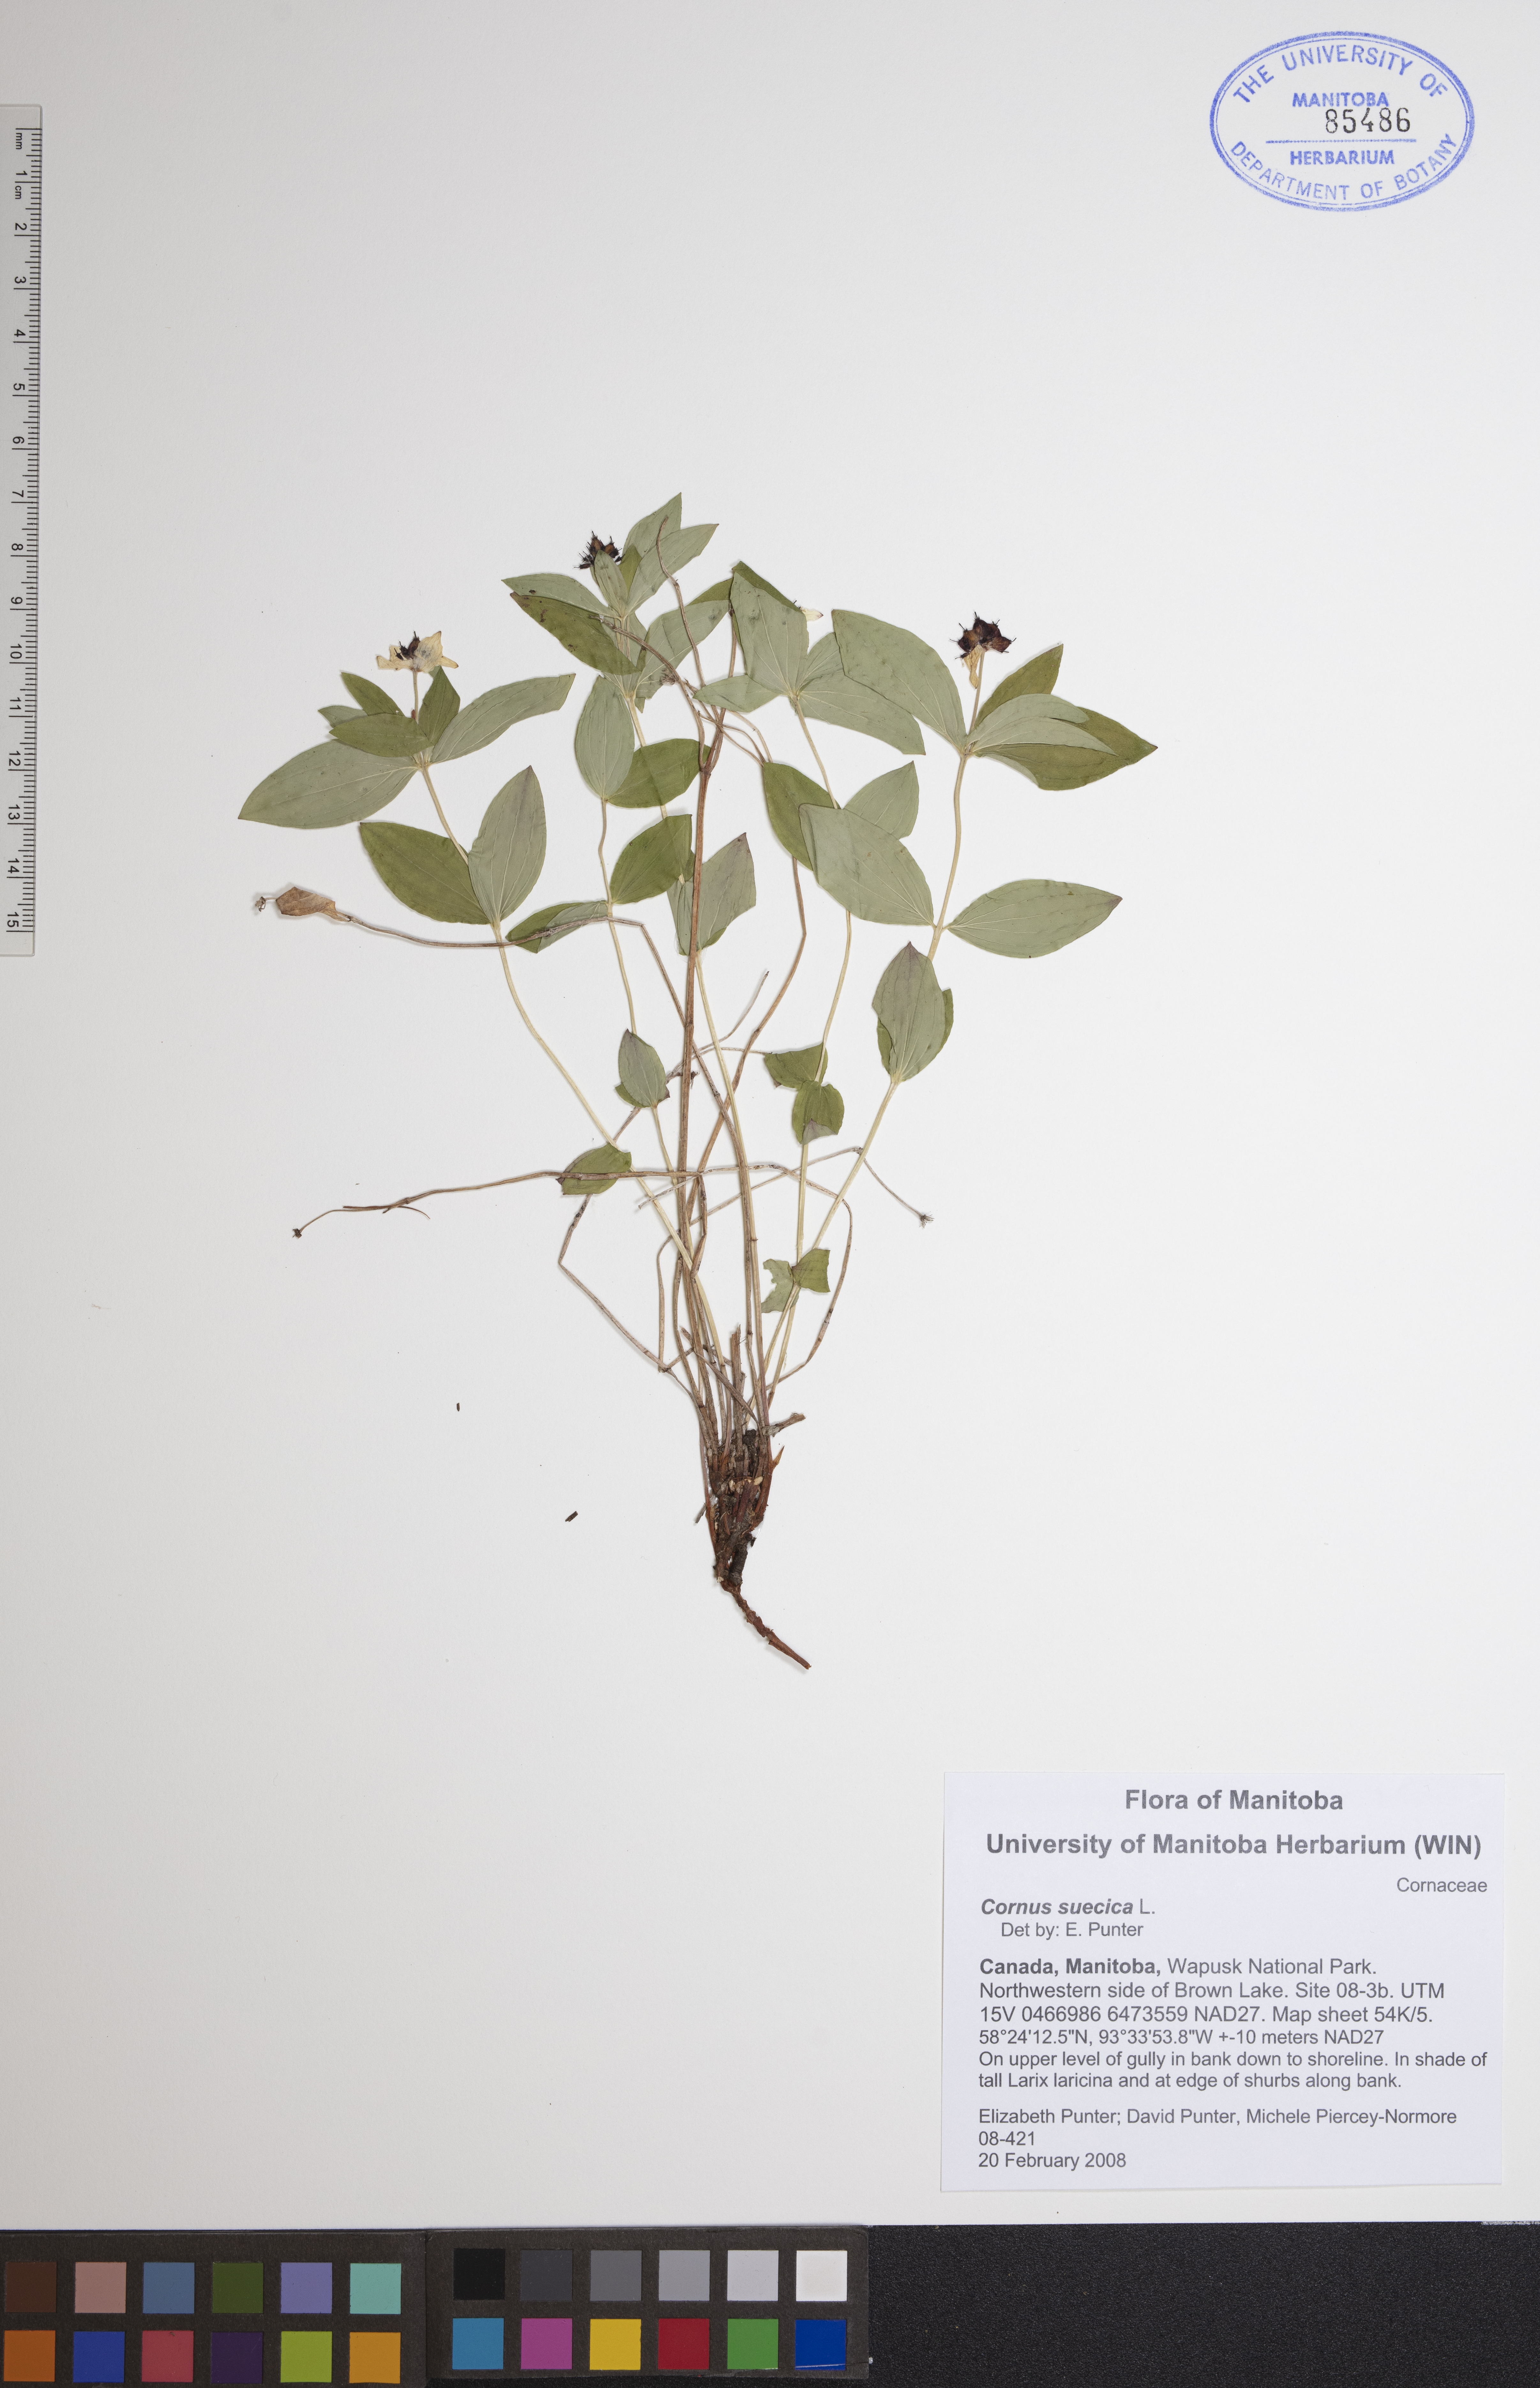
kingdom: Plantae
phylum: Tracheophyta
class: Magnoliopsida
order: Cornales
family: Cornaceae
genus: Cornus
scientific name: Cornus suecica
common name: Dwarf cornel
